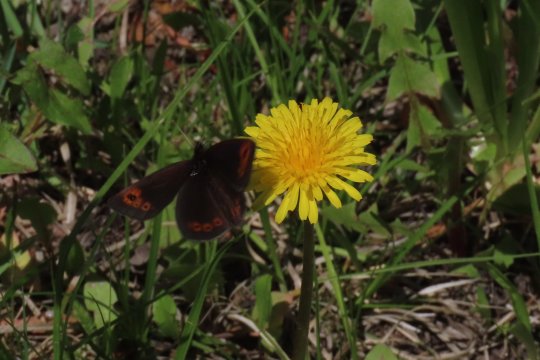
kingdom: Animalia
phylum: Arthropoda
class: Insecta
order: Lepidoptera
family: Nymphalidae
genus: Erebia
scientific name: Erebia epipsodea
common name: Common Alpine
